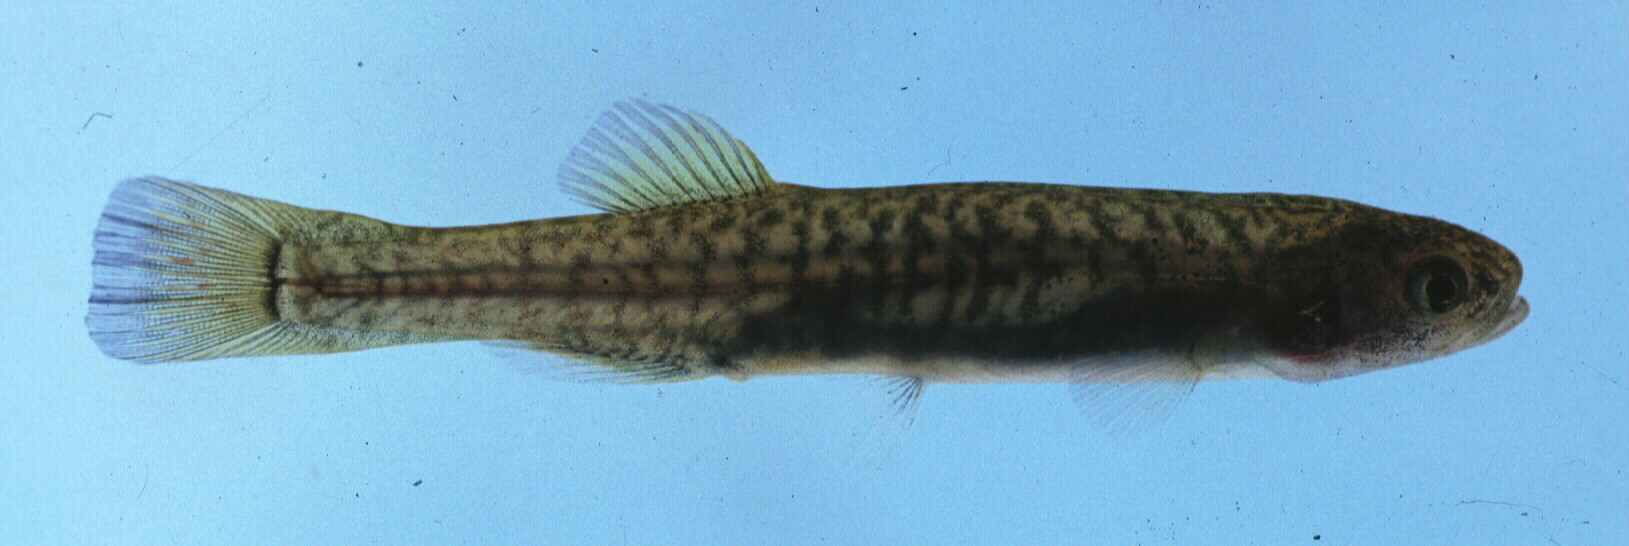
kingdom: Animalia
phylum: Chordata
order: Osmeriformes
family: Galaxiidae
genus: Galaxias
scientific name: Galaxias zebratus
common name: Cape galaxias
